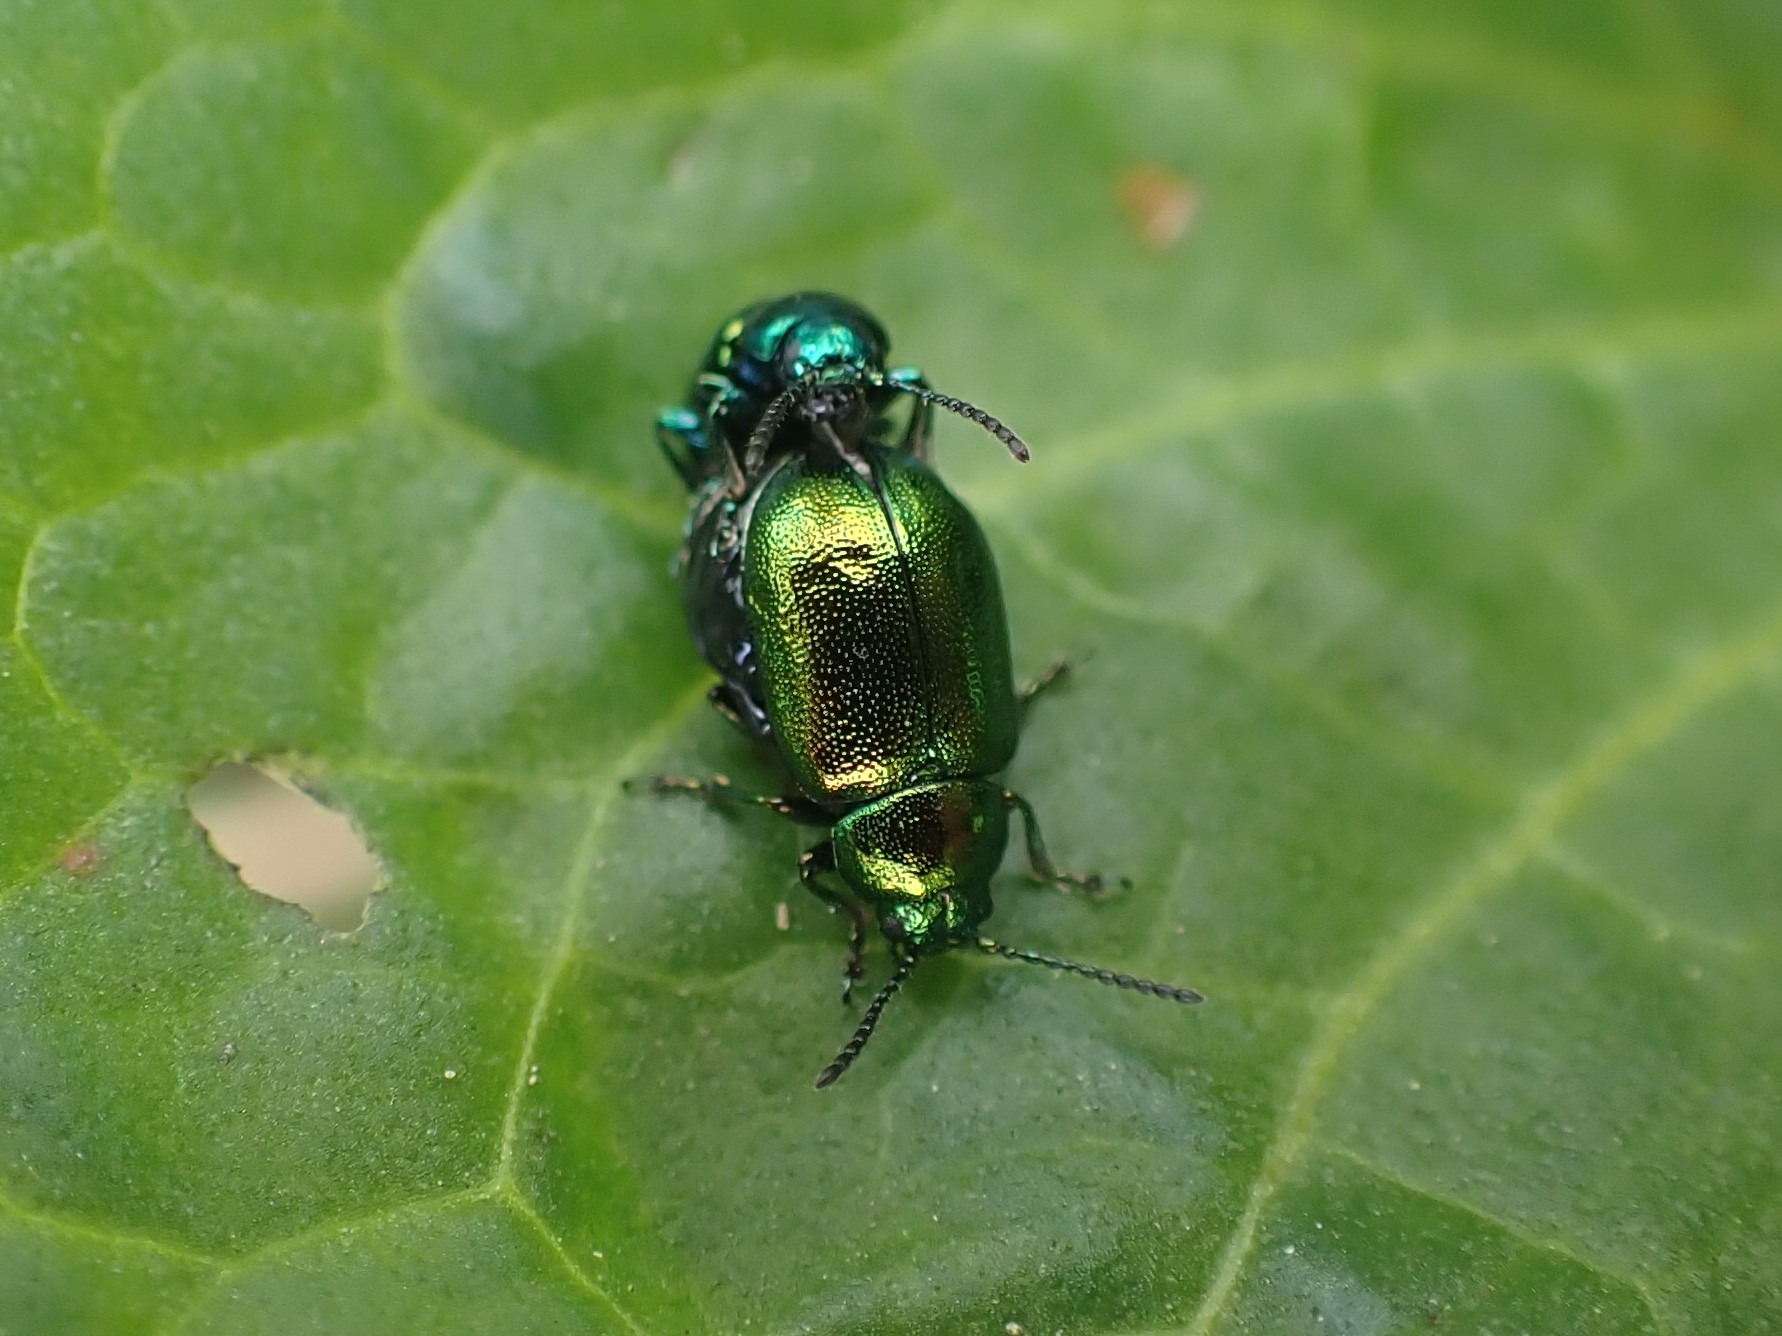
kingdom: Animalia
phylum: Arthropoda
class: Insecta
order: Coleoptera
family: Chrysomelidae
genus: Gastrophysa
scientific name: Gastrophysa viridula
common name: Skræppebladbille
